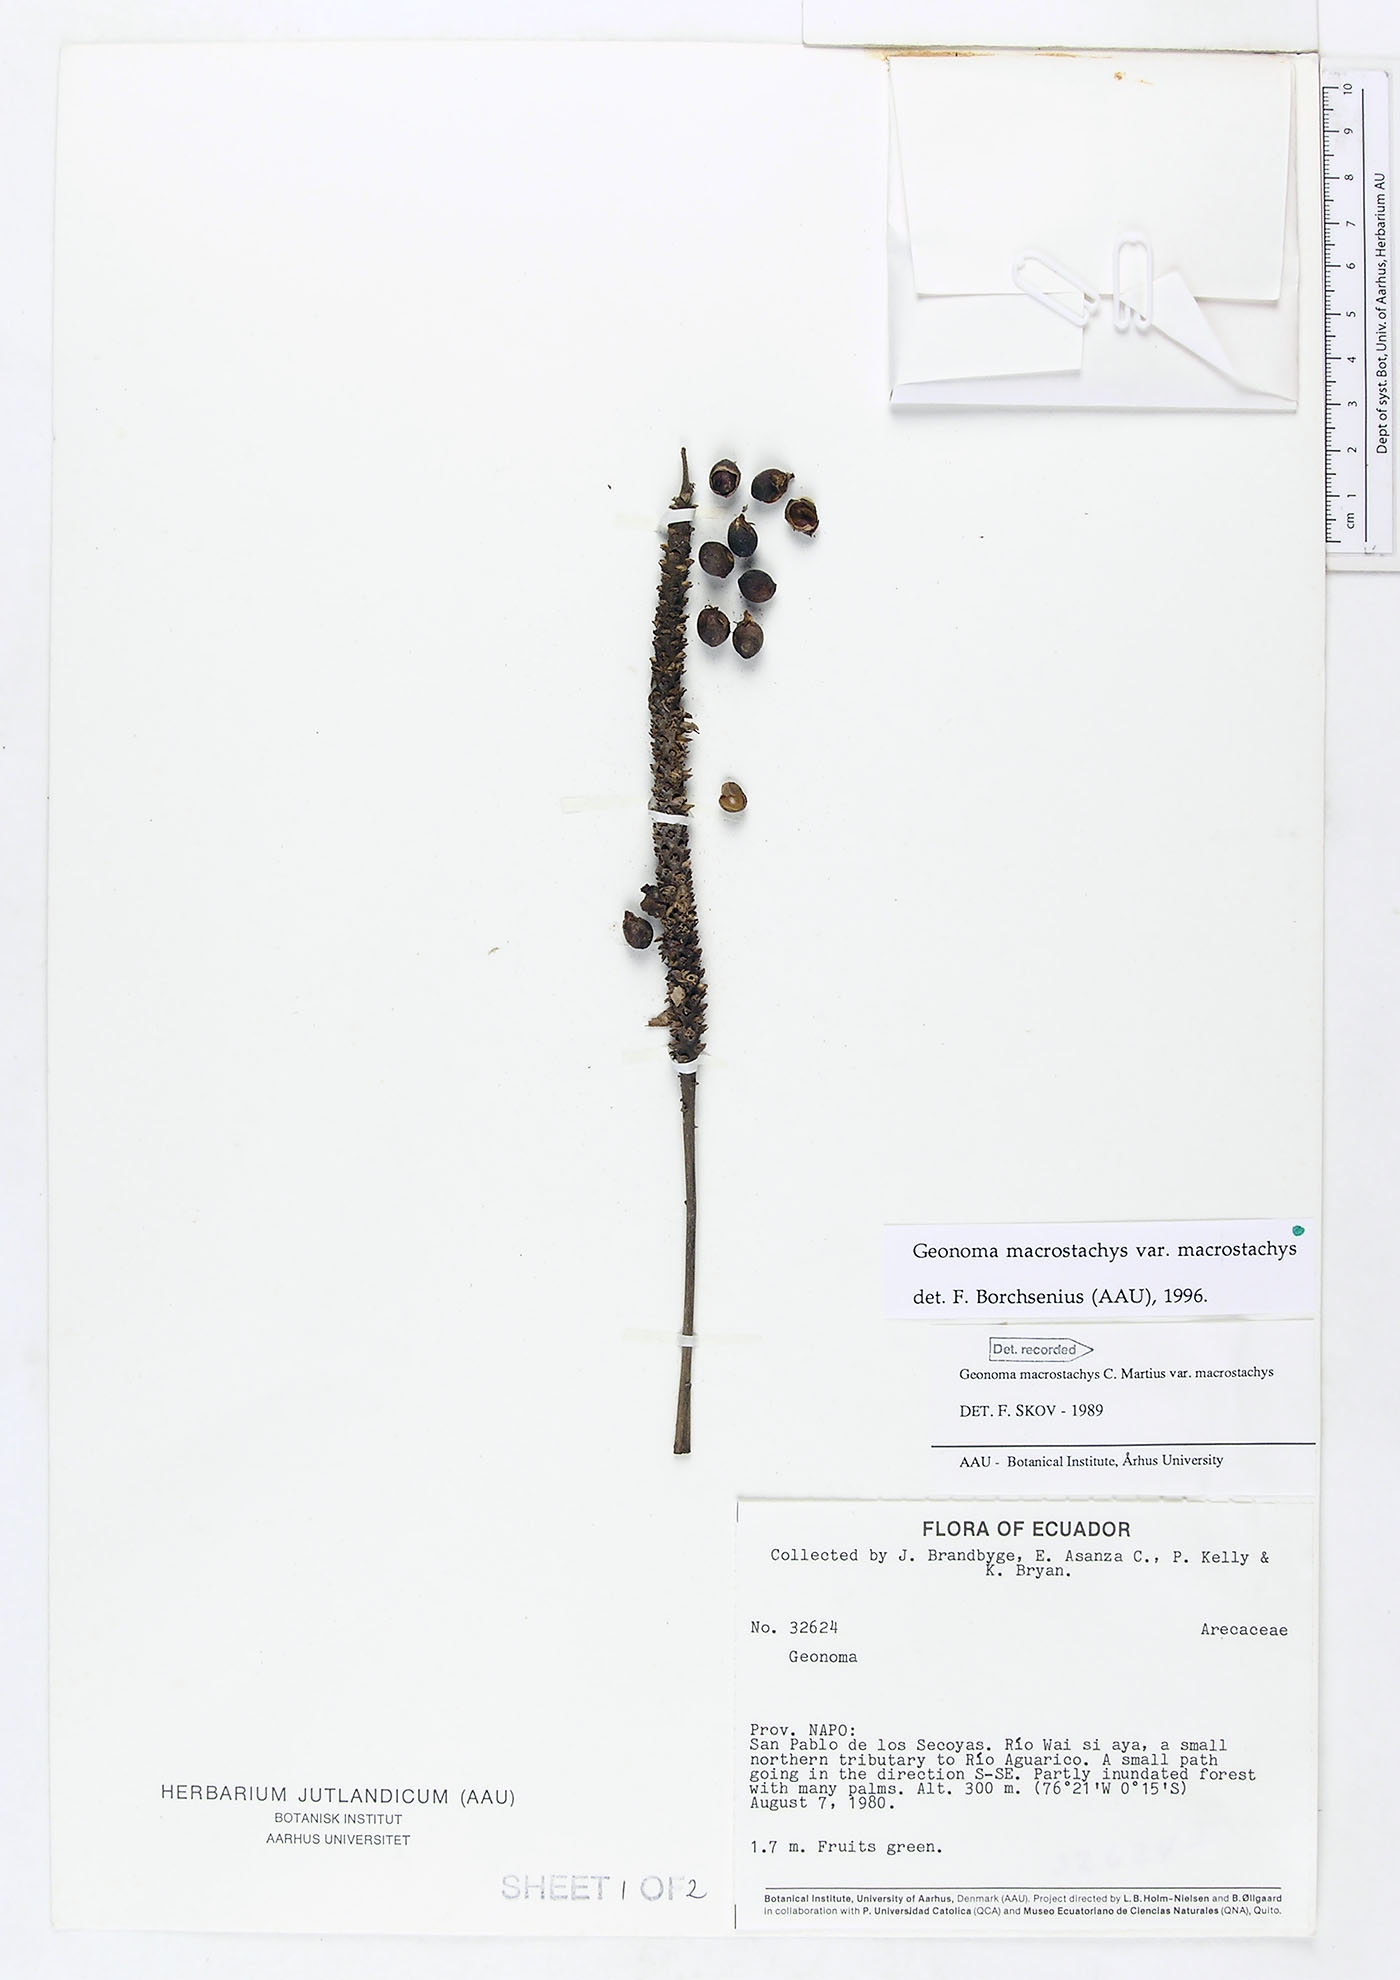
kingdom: Plantae
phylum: Tracheophyta
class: Liliopsida
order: Arecales
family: Arecaceae
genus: Geonoma
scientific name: Geonoma macrostachys
